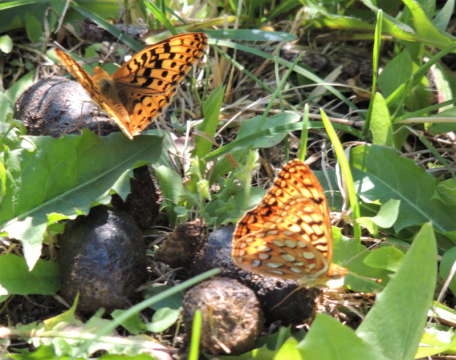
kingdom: Animalia
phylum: Arthropoda
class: Insecta
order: Lepidoptera
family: Nymphalidae
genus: Speyeria
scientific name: Speyeria zerene
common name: Zerene Fritillary
